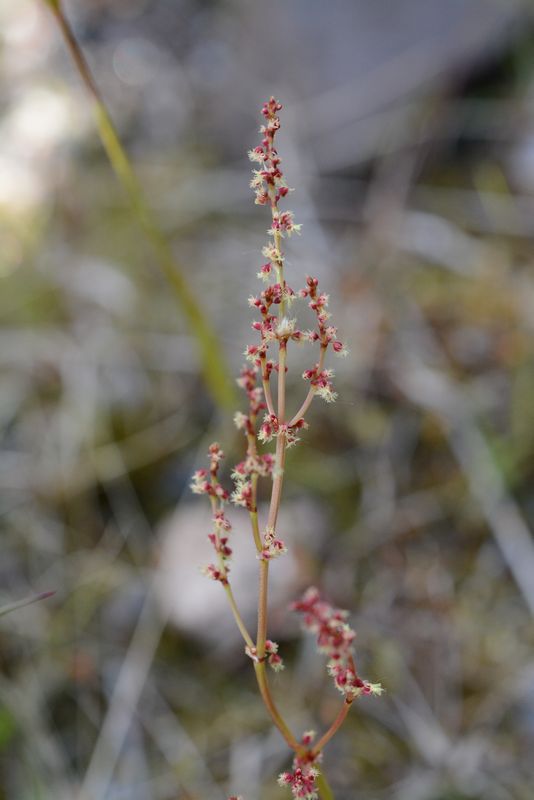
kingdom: Plantae
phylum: Tracheophyta
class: Magnoliopsida
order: Caryophyllales
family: Polygonaceae
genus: Rumex
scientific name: Rumex acetosella
